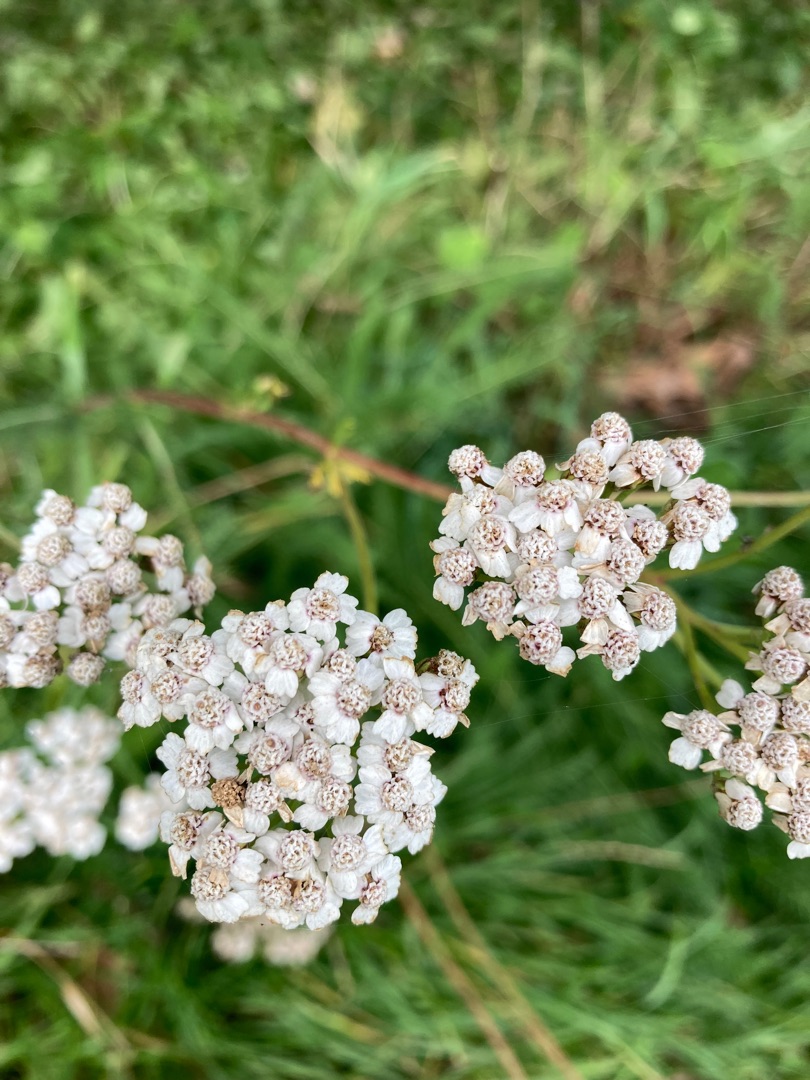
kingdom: Plantae
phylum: Tracheophyta
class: Magnoliopsida
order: Asterales
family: Asteraceae
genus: Achillea
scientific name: Achillea millefolium
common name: Almindelig røllike
